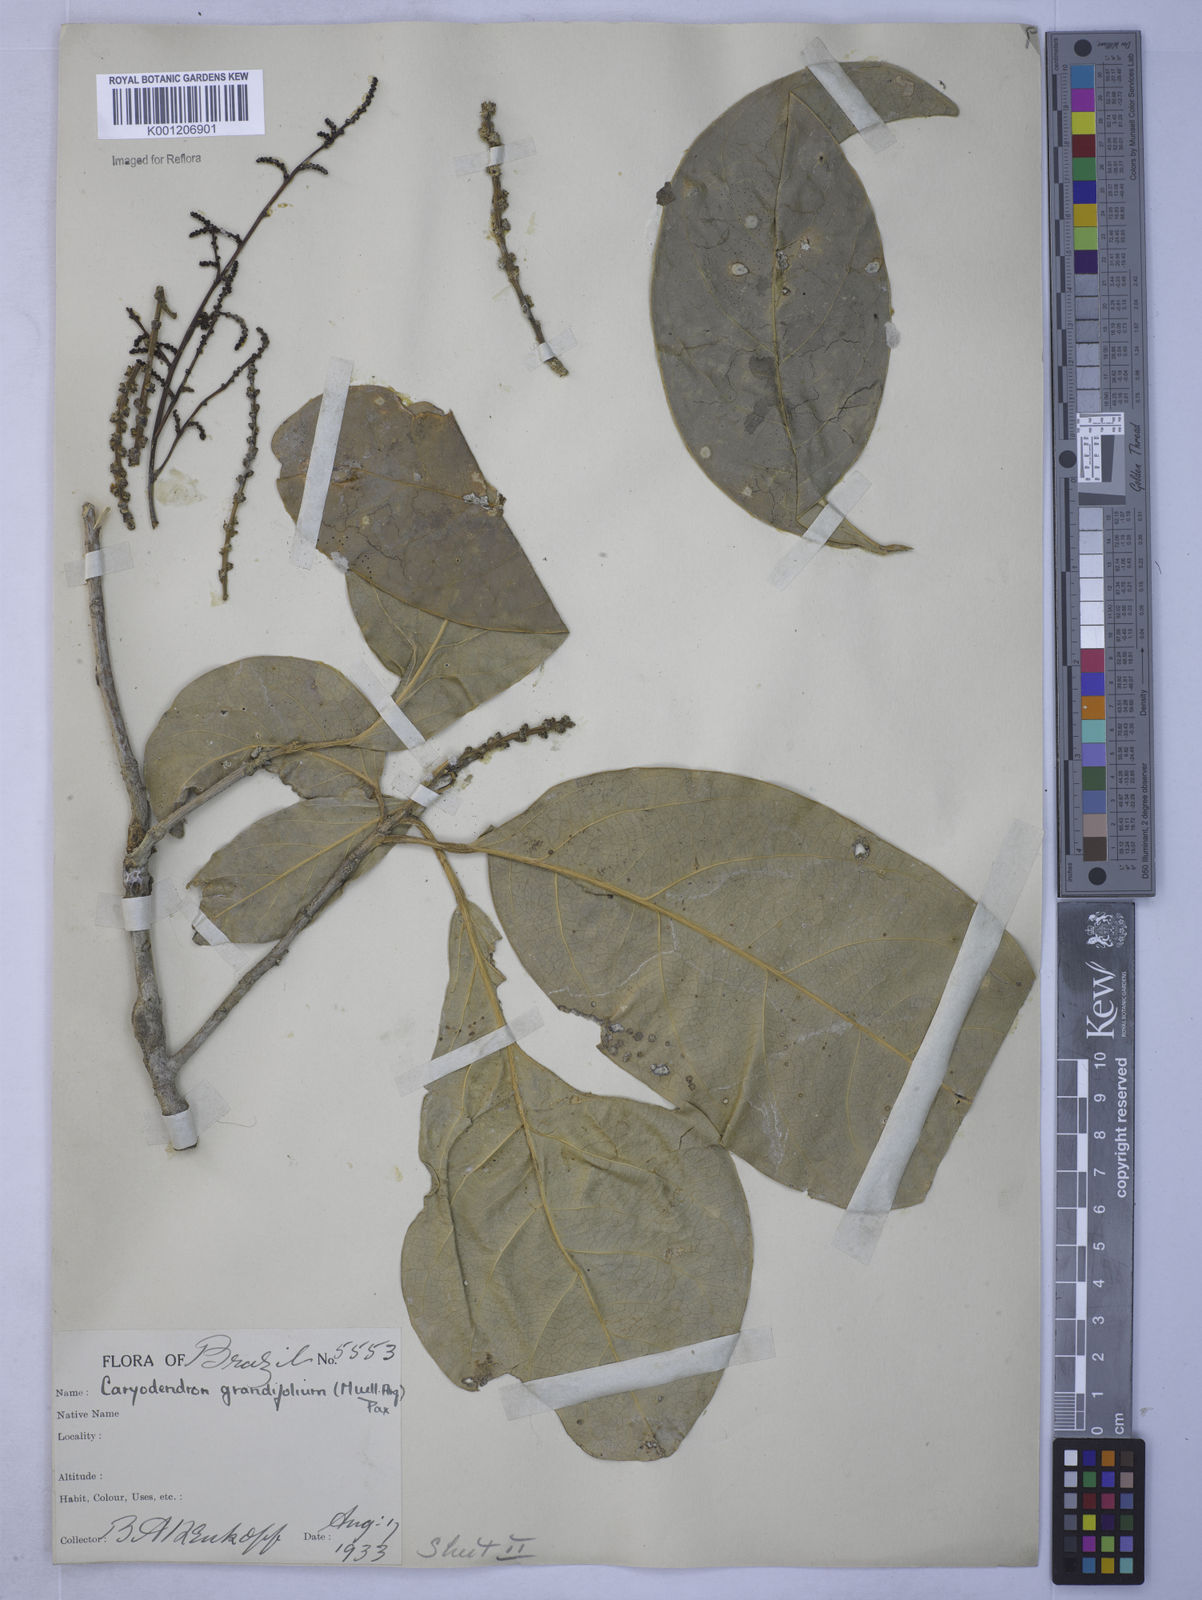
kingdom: Plantae
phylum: Tracheophyta
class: Magnoliopsida
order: Malpighiales
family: Euphorbiaceae
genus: Caryodendron
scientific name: Caryodendron
